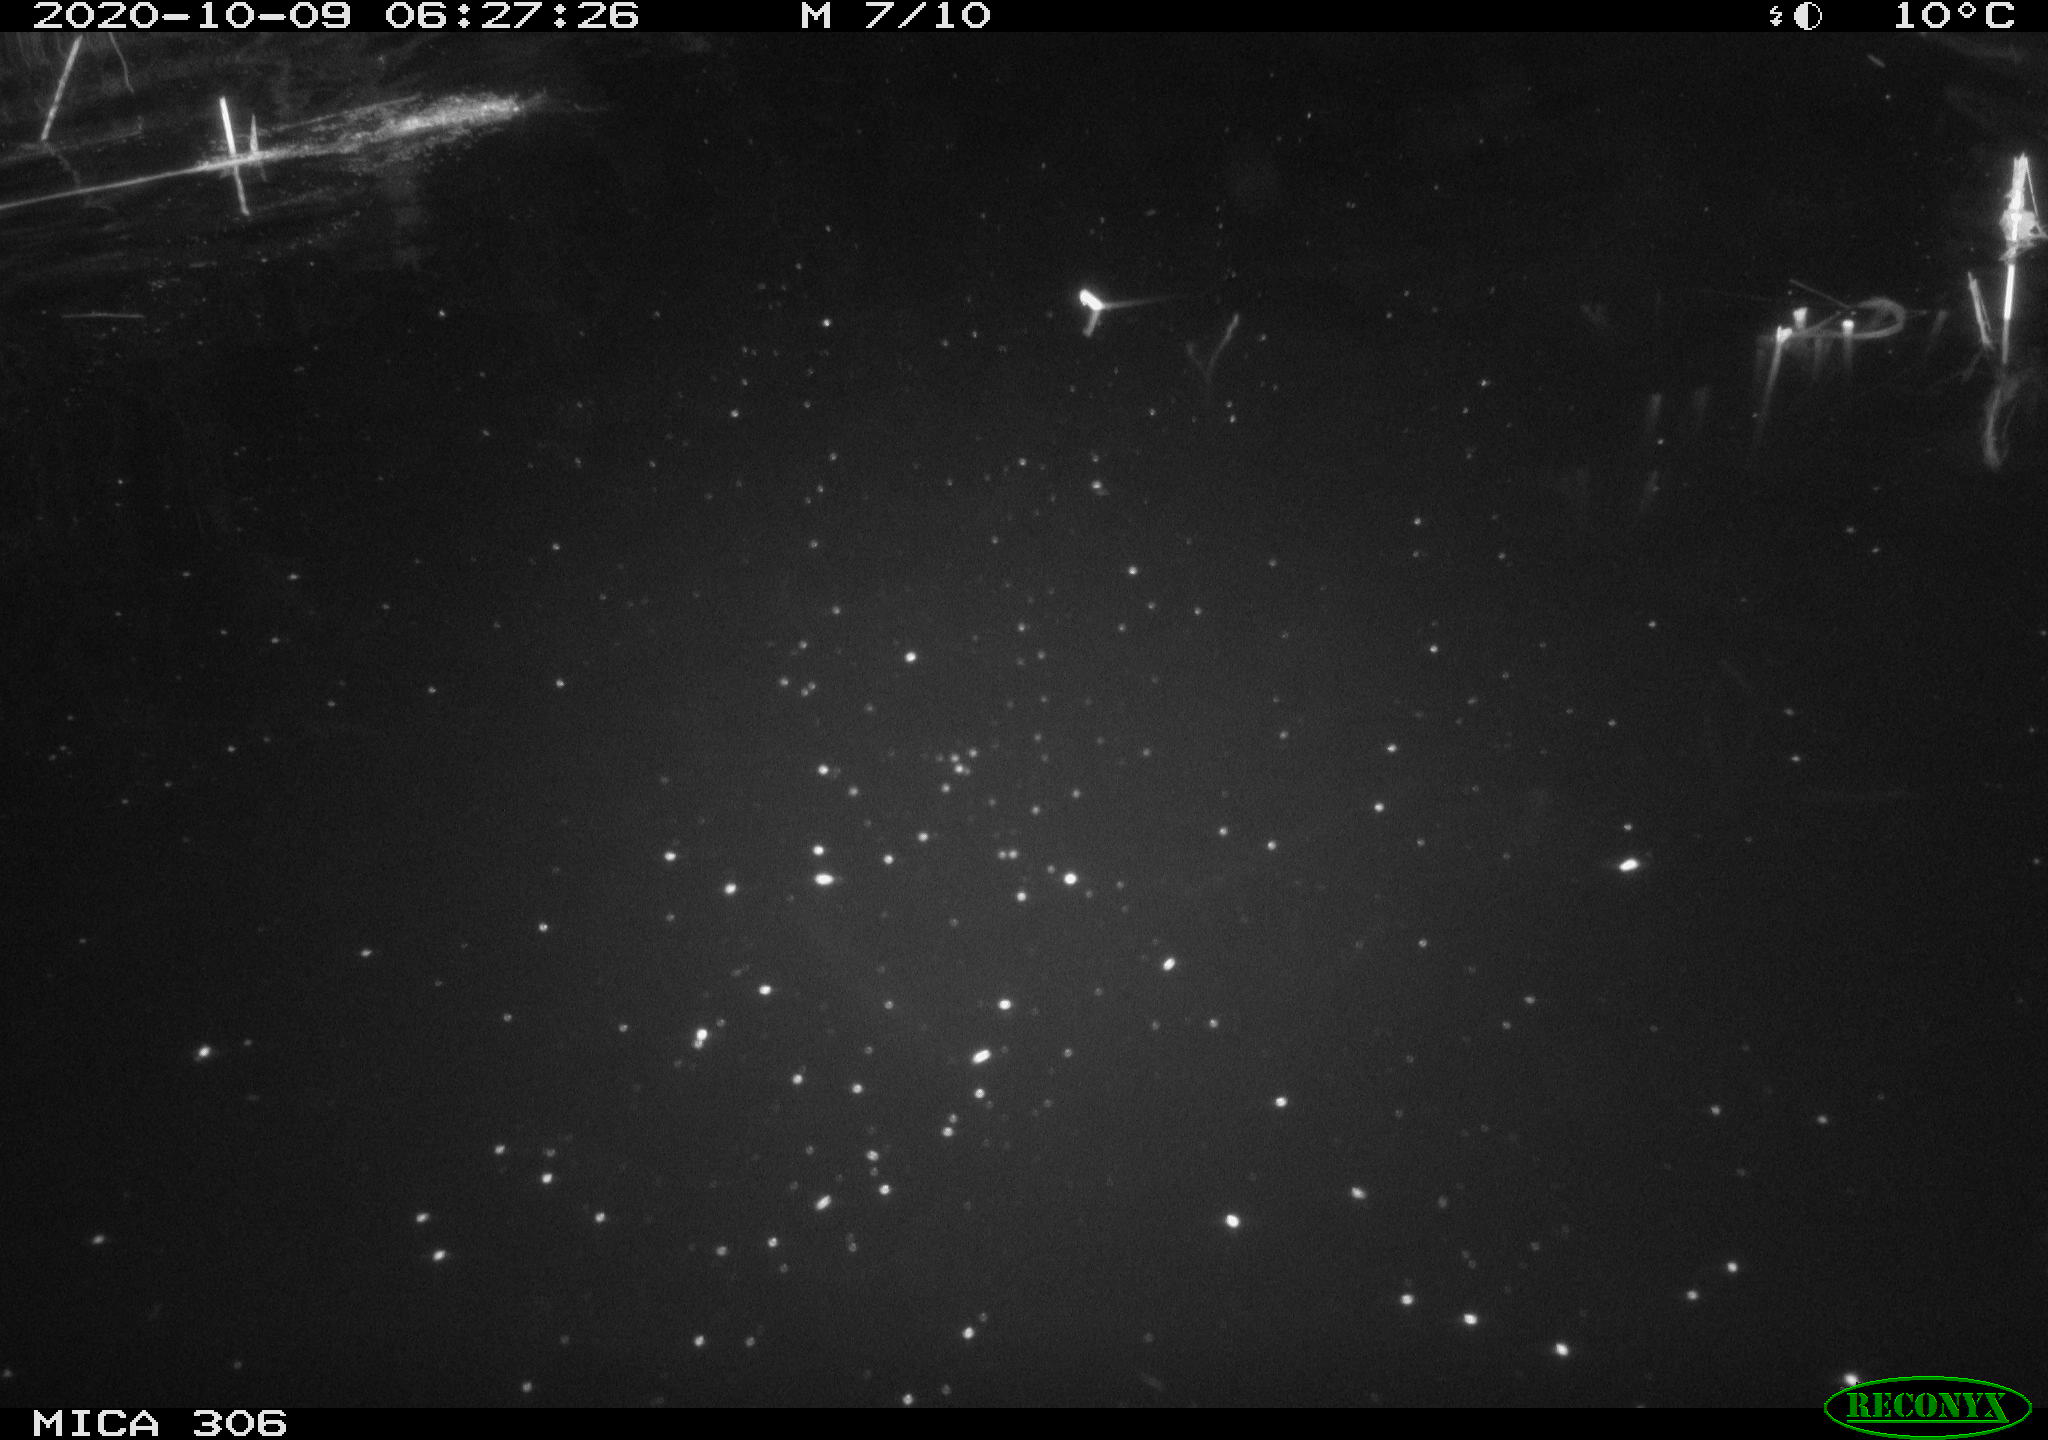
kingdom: Animalia
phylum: Chordata
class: Mammalia
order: Rodentia
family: Cricetidae
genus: Ondatra
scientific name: Ondatra zibethicus
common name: Muskrat
